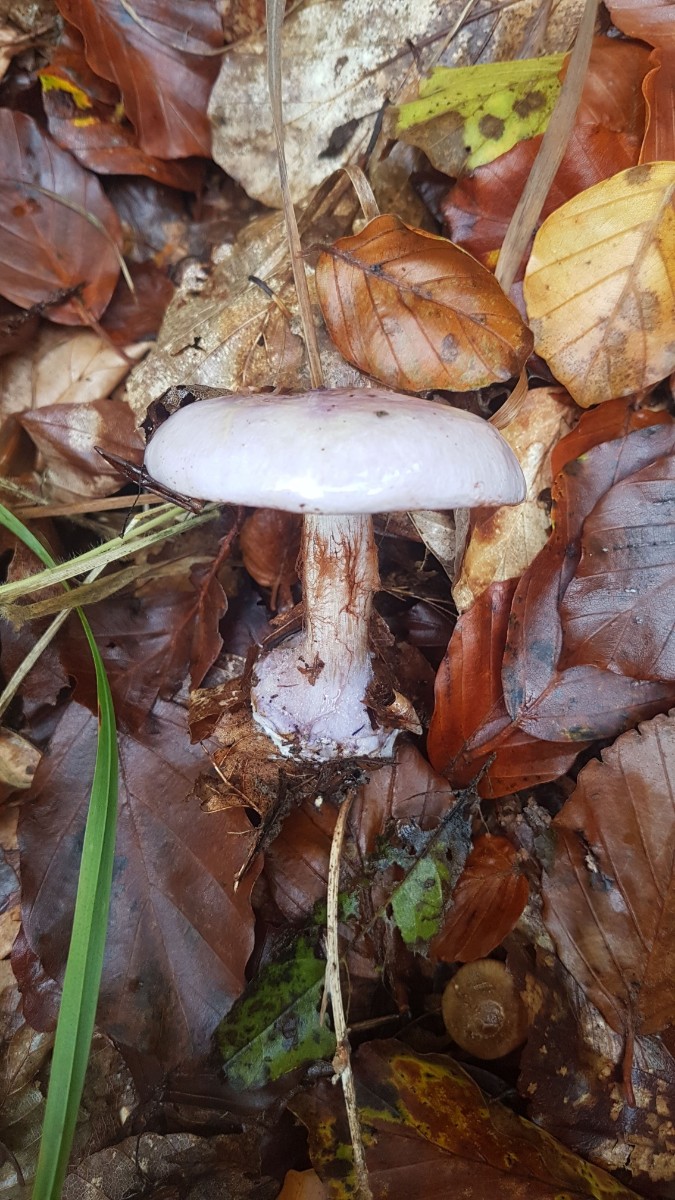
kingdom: Fungi
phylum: Basidiomycota
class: Agaricomycetes
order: Agaricales
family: Cortinariaceae
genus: Calonarius
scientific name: Calonarius sodagnitus
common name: violblå slørhat
